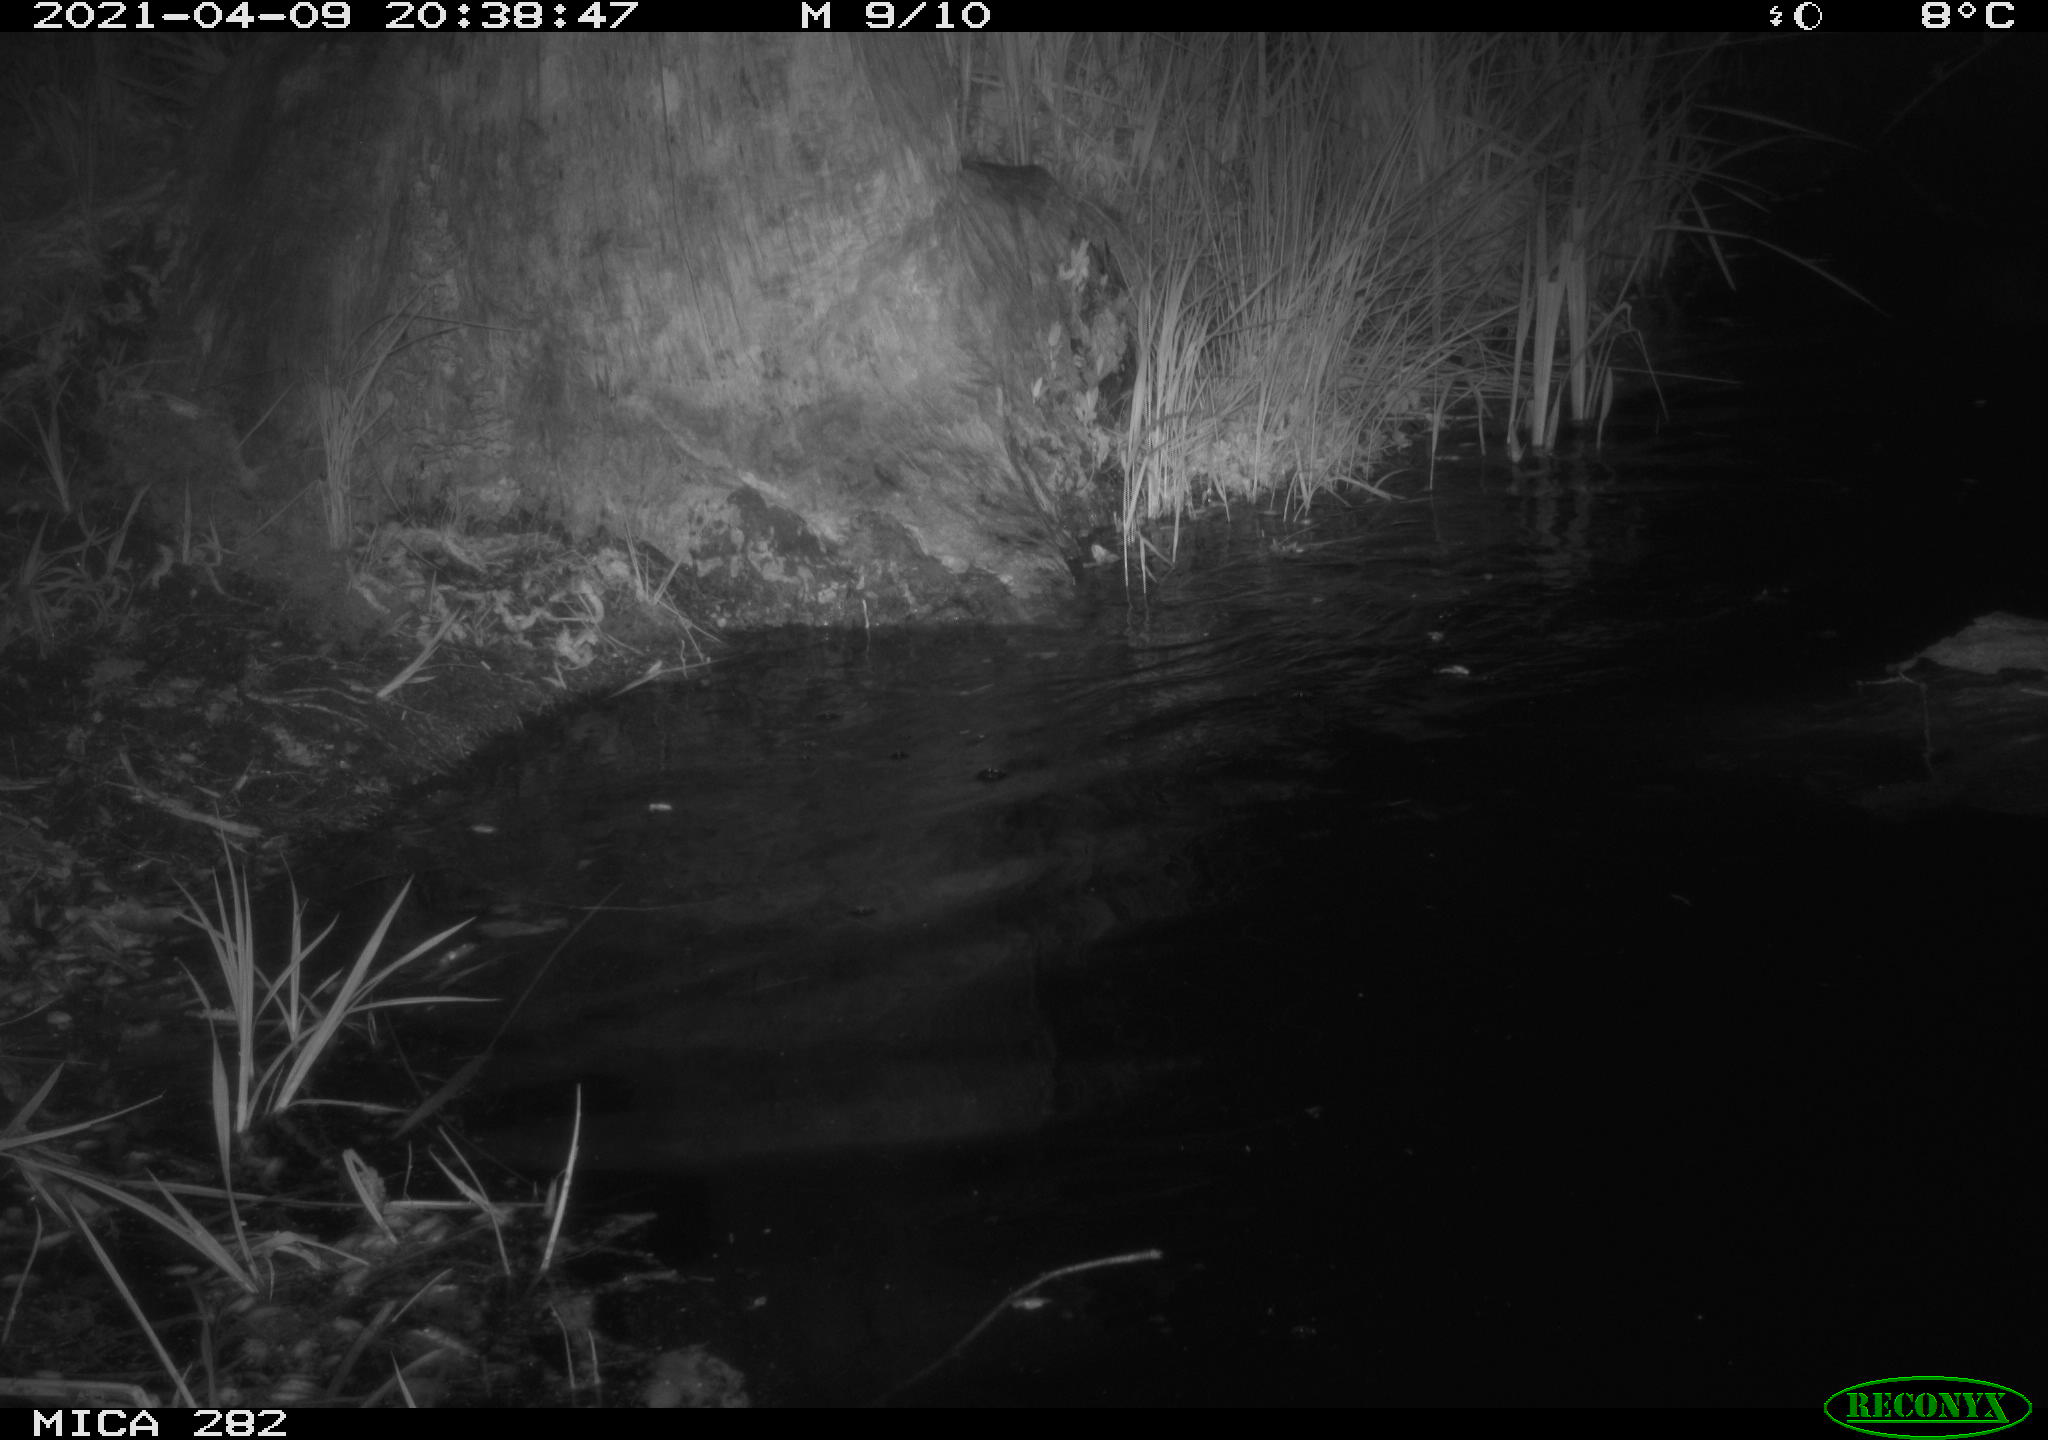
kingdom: Animalia
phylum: Chordata
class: Mammalia
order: Rodentia
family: Castoridae
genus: Castor
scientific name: Castor fiber
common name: Eurasian beaver
